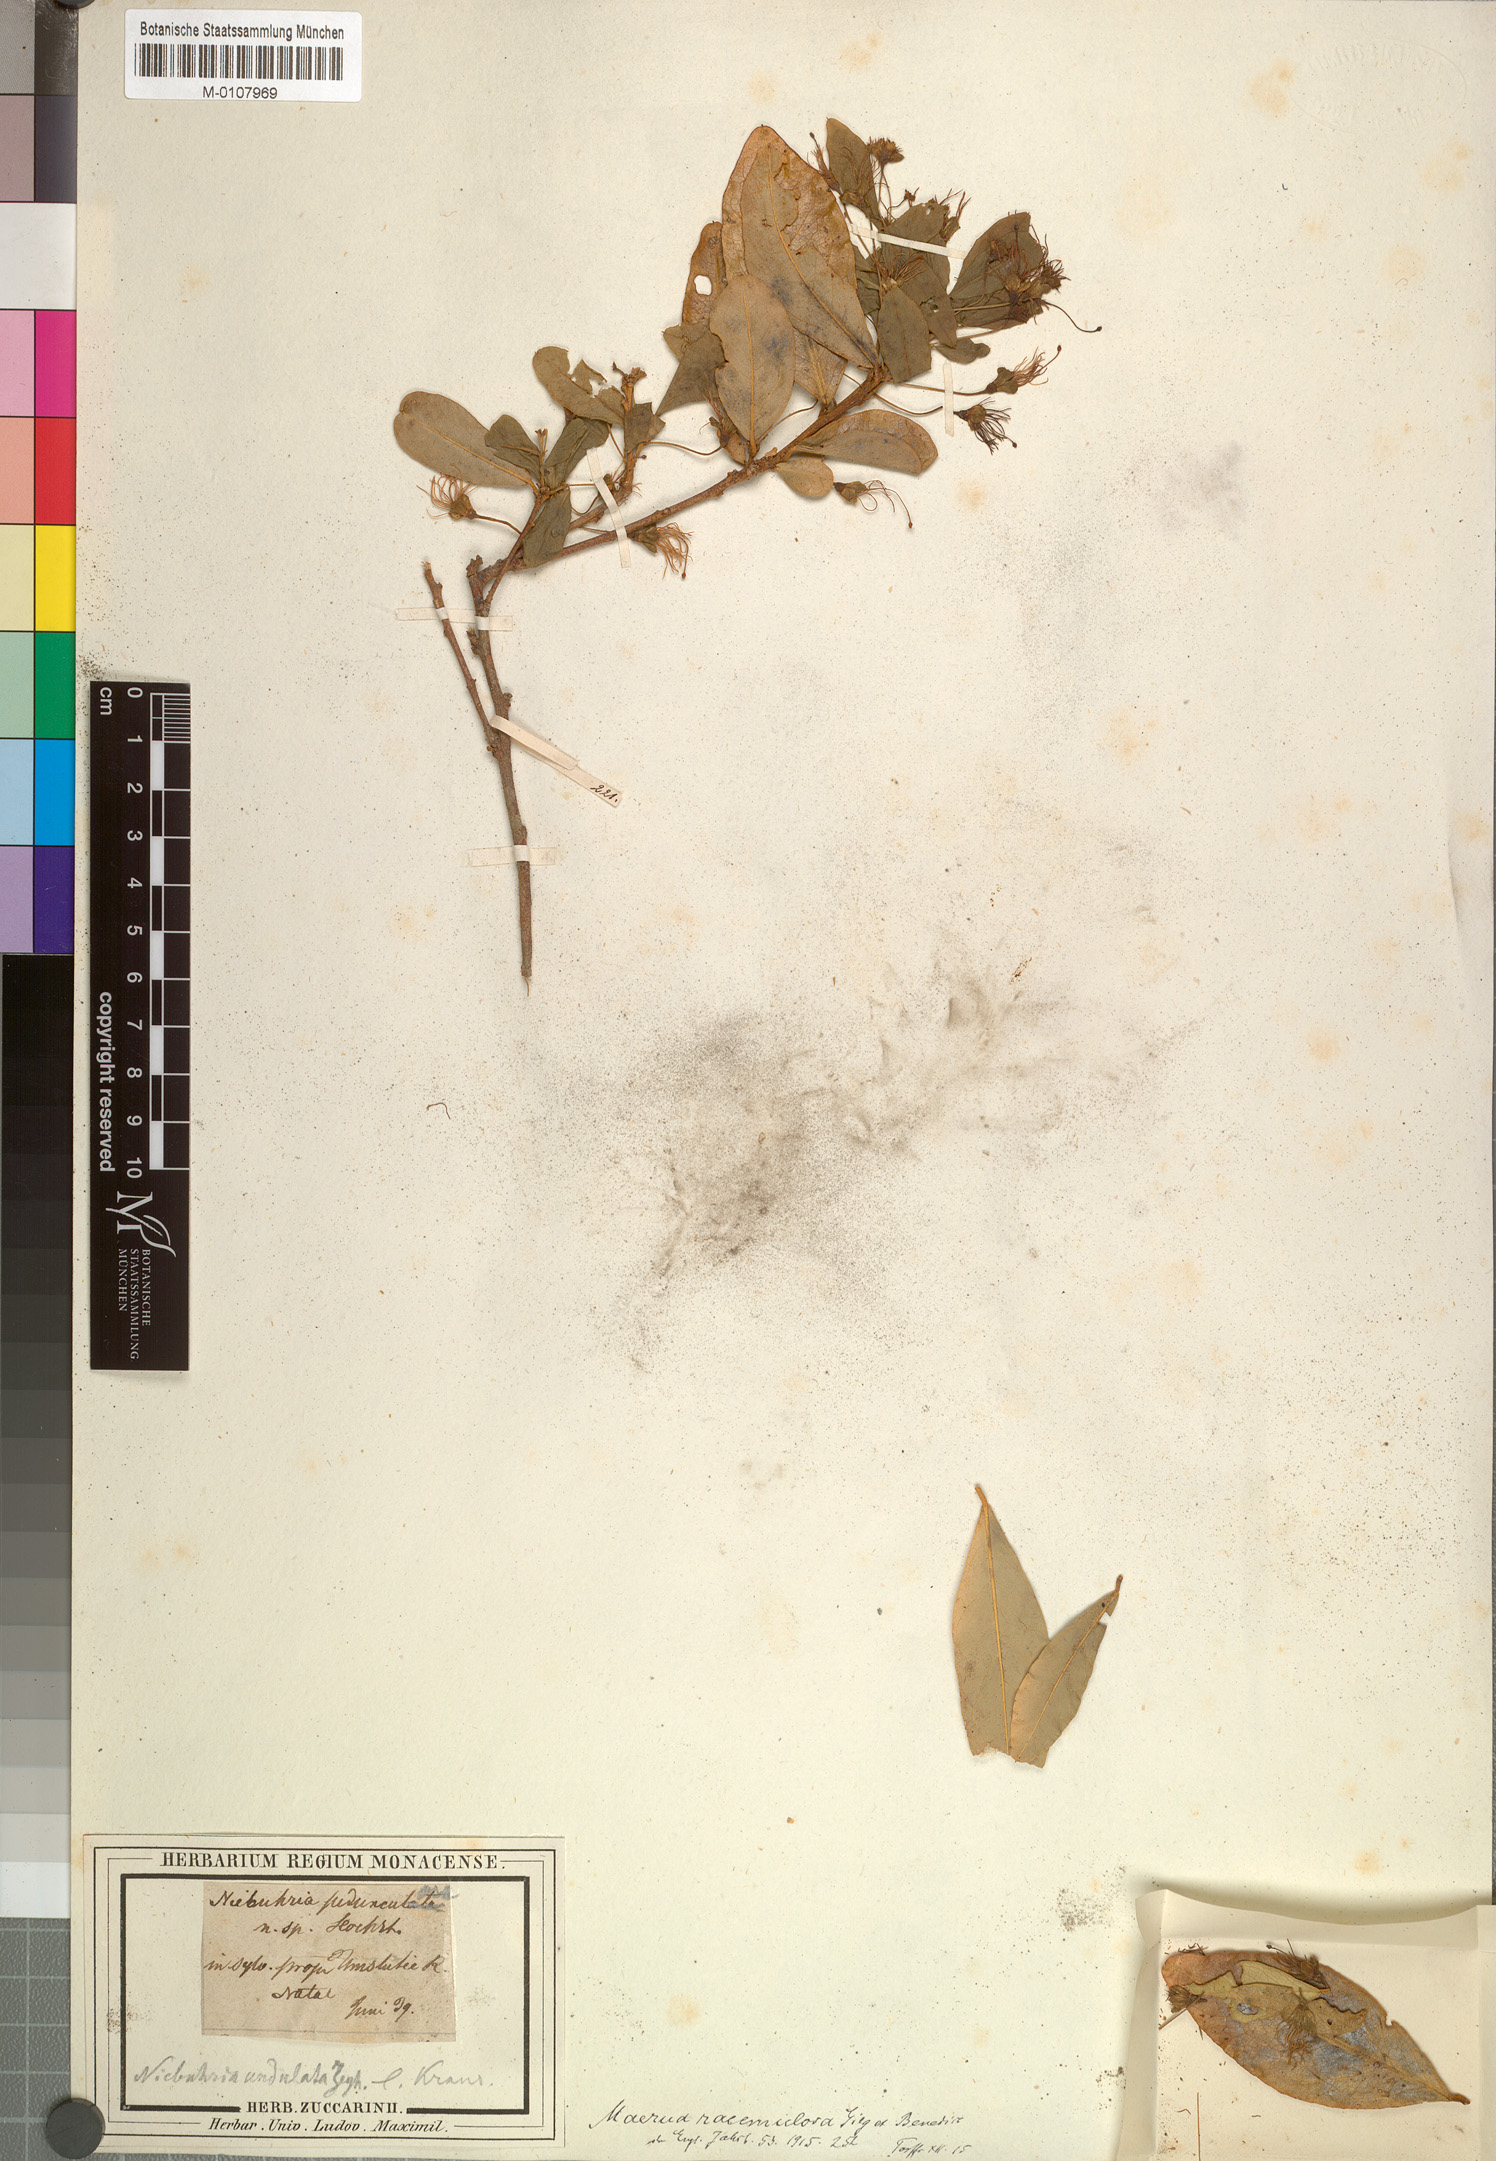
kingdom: Plantae
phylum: Tracheophyta
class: Magnoliopsida
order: Brassicales
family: Capparaceae
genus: Maerua
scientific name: Maerua racemulosa
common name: Forest bush-cherry
